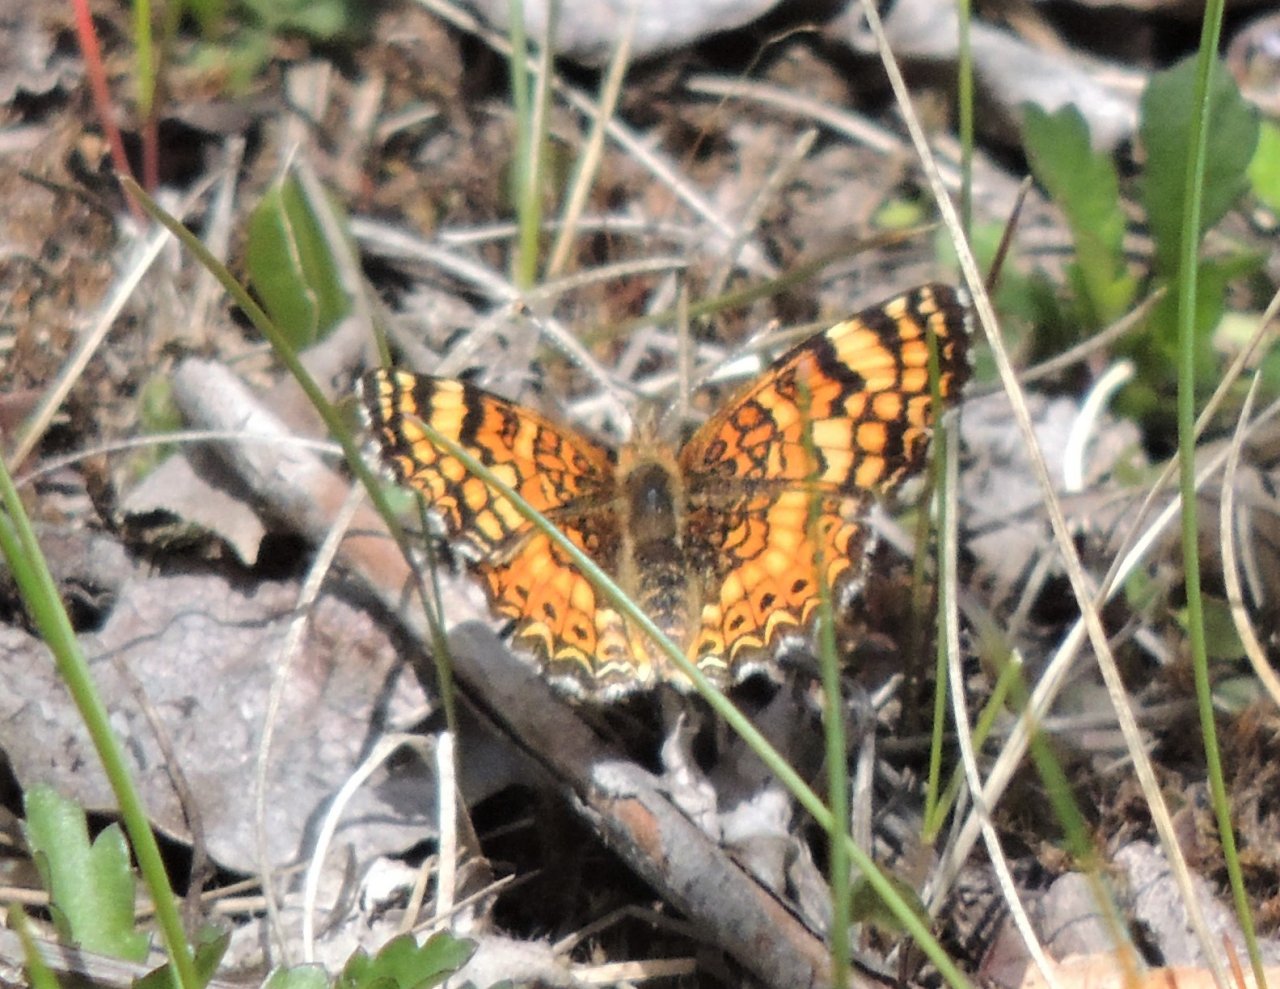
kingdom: Animalia
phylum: Arthropoda
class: Insecta
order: Lepidoptera
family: Nymphalidae
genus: Eresia
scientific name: Eresia aveyrona
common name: Mylitta Crescent
